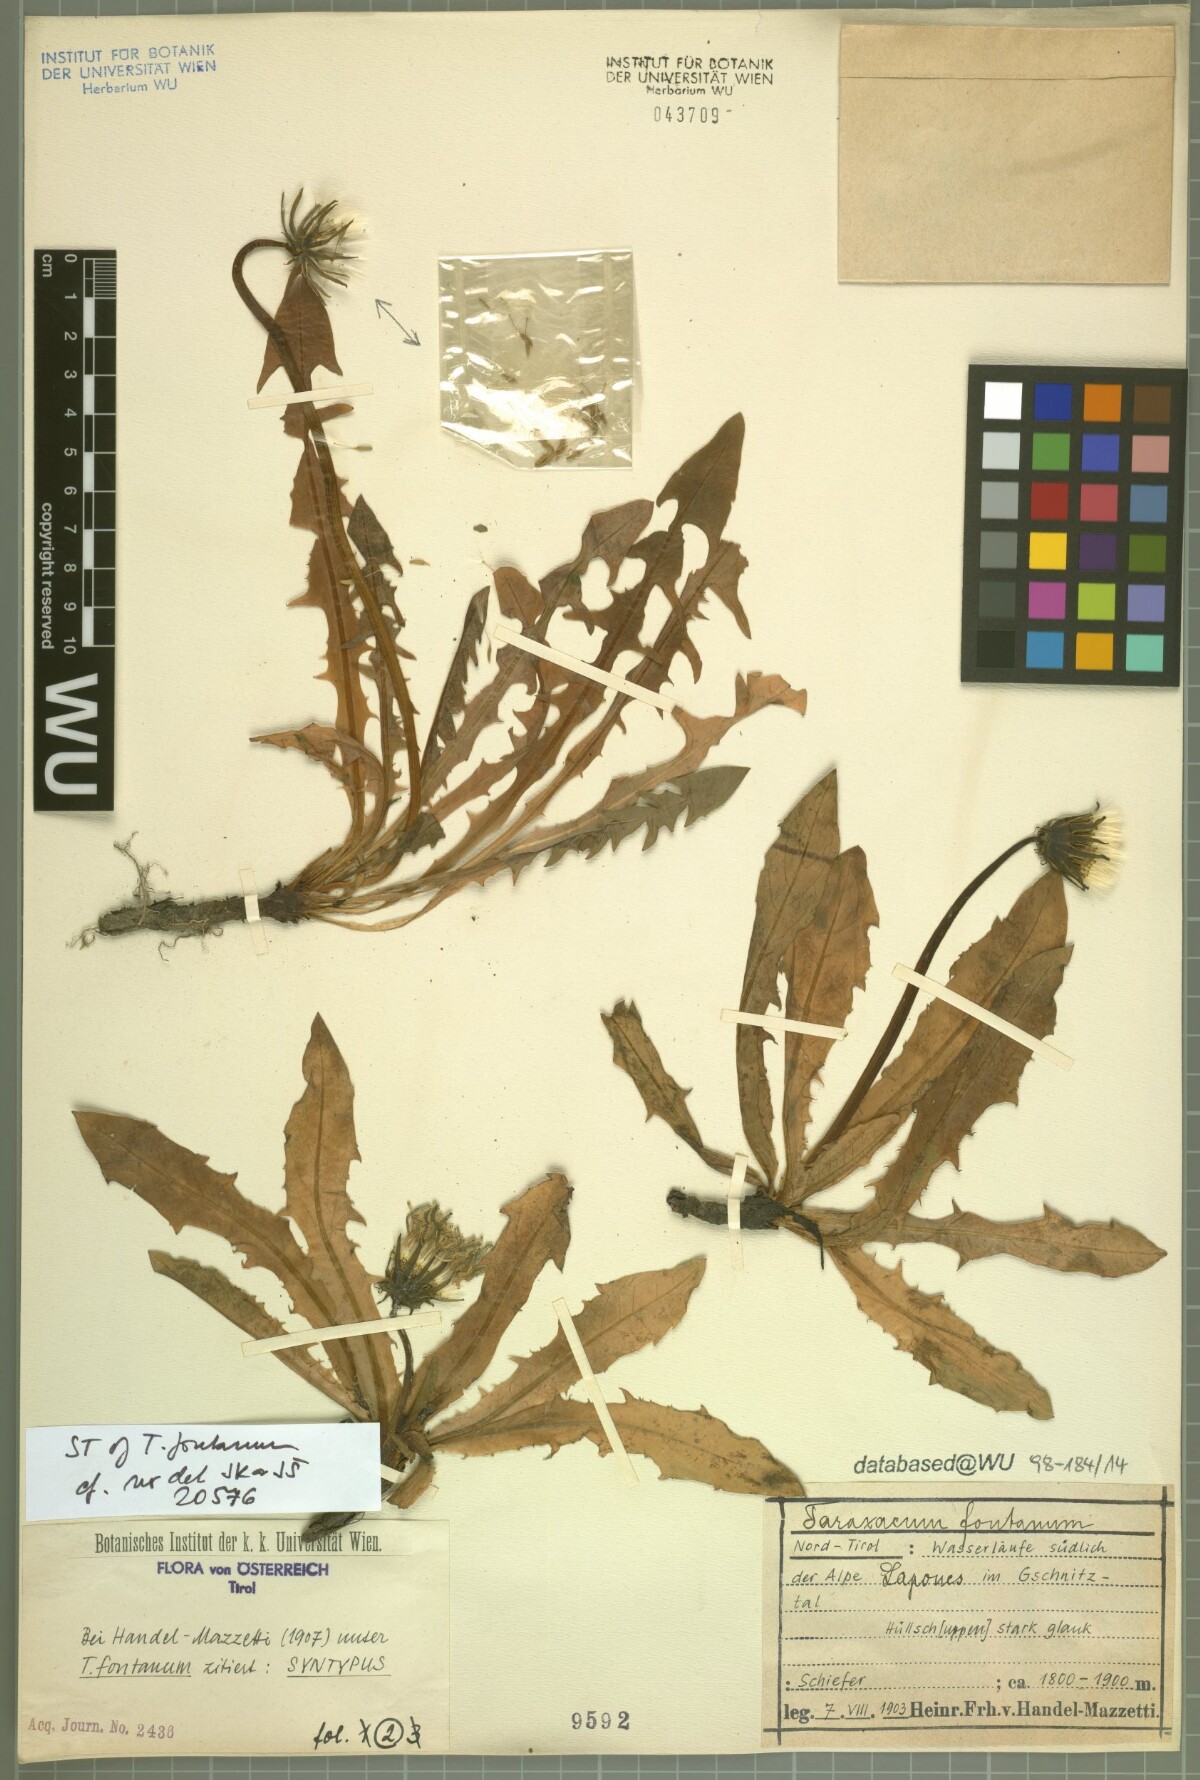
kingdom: Plantae
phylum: Tracheophyta
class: Magnoliopsida
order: Asterales
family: Asteraceae
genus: Taraxacum
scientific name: Taraxacum fontanum
